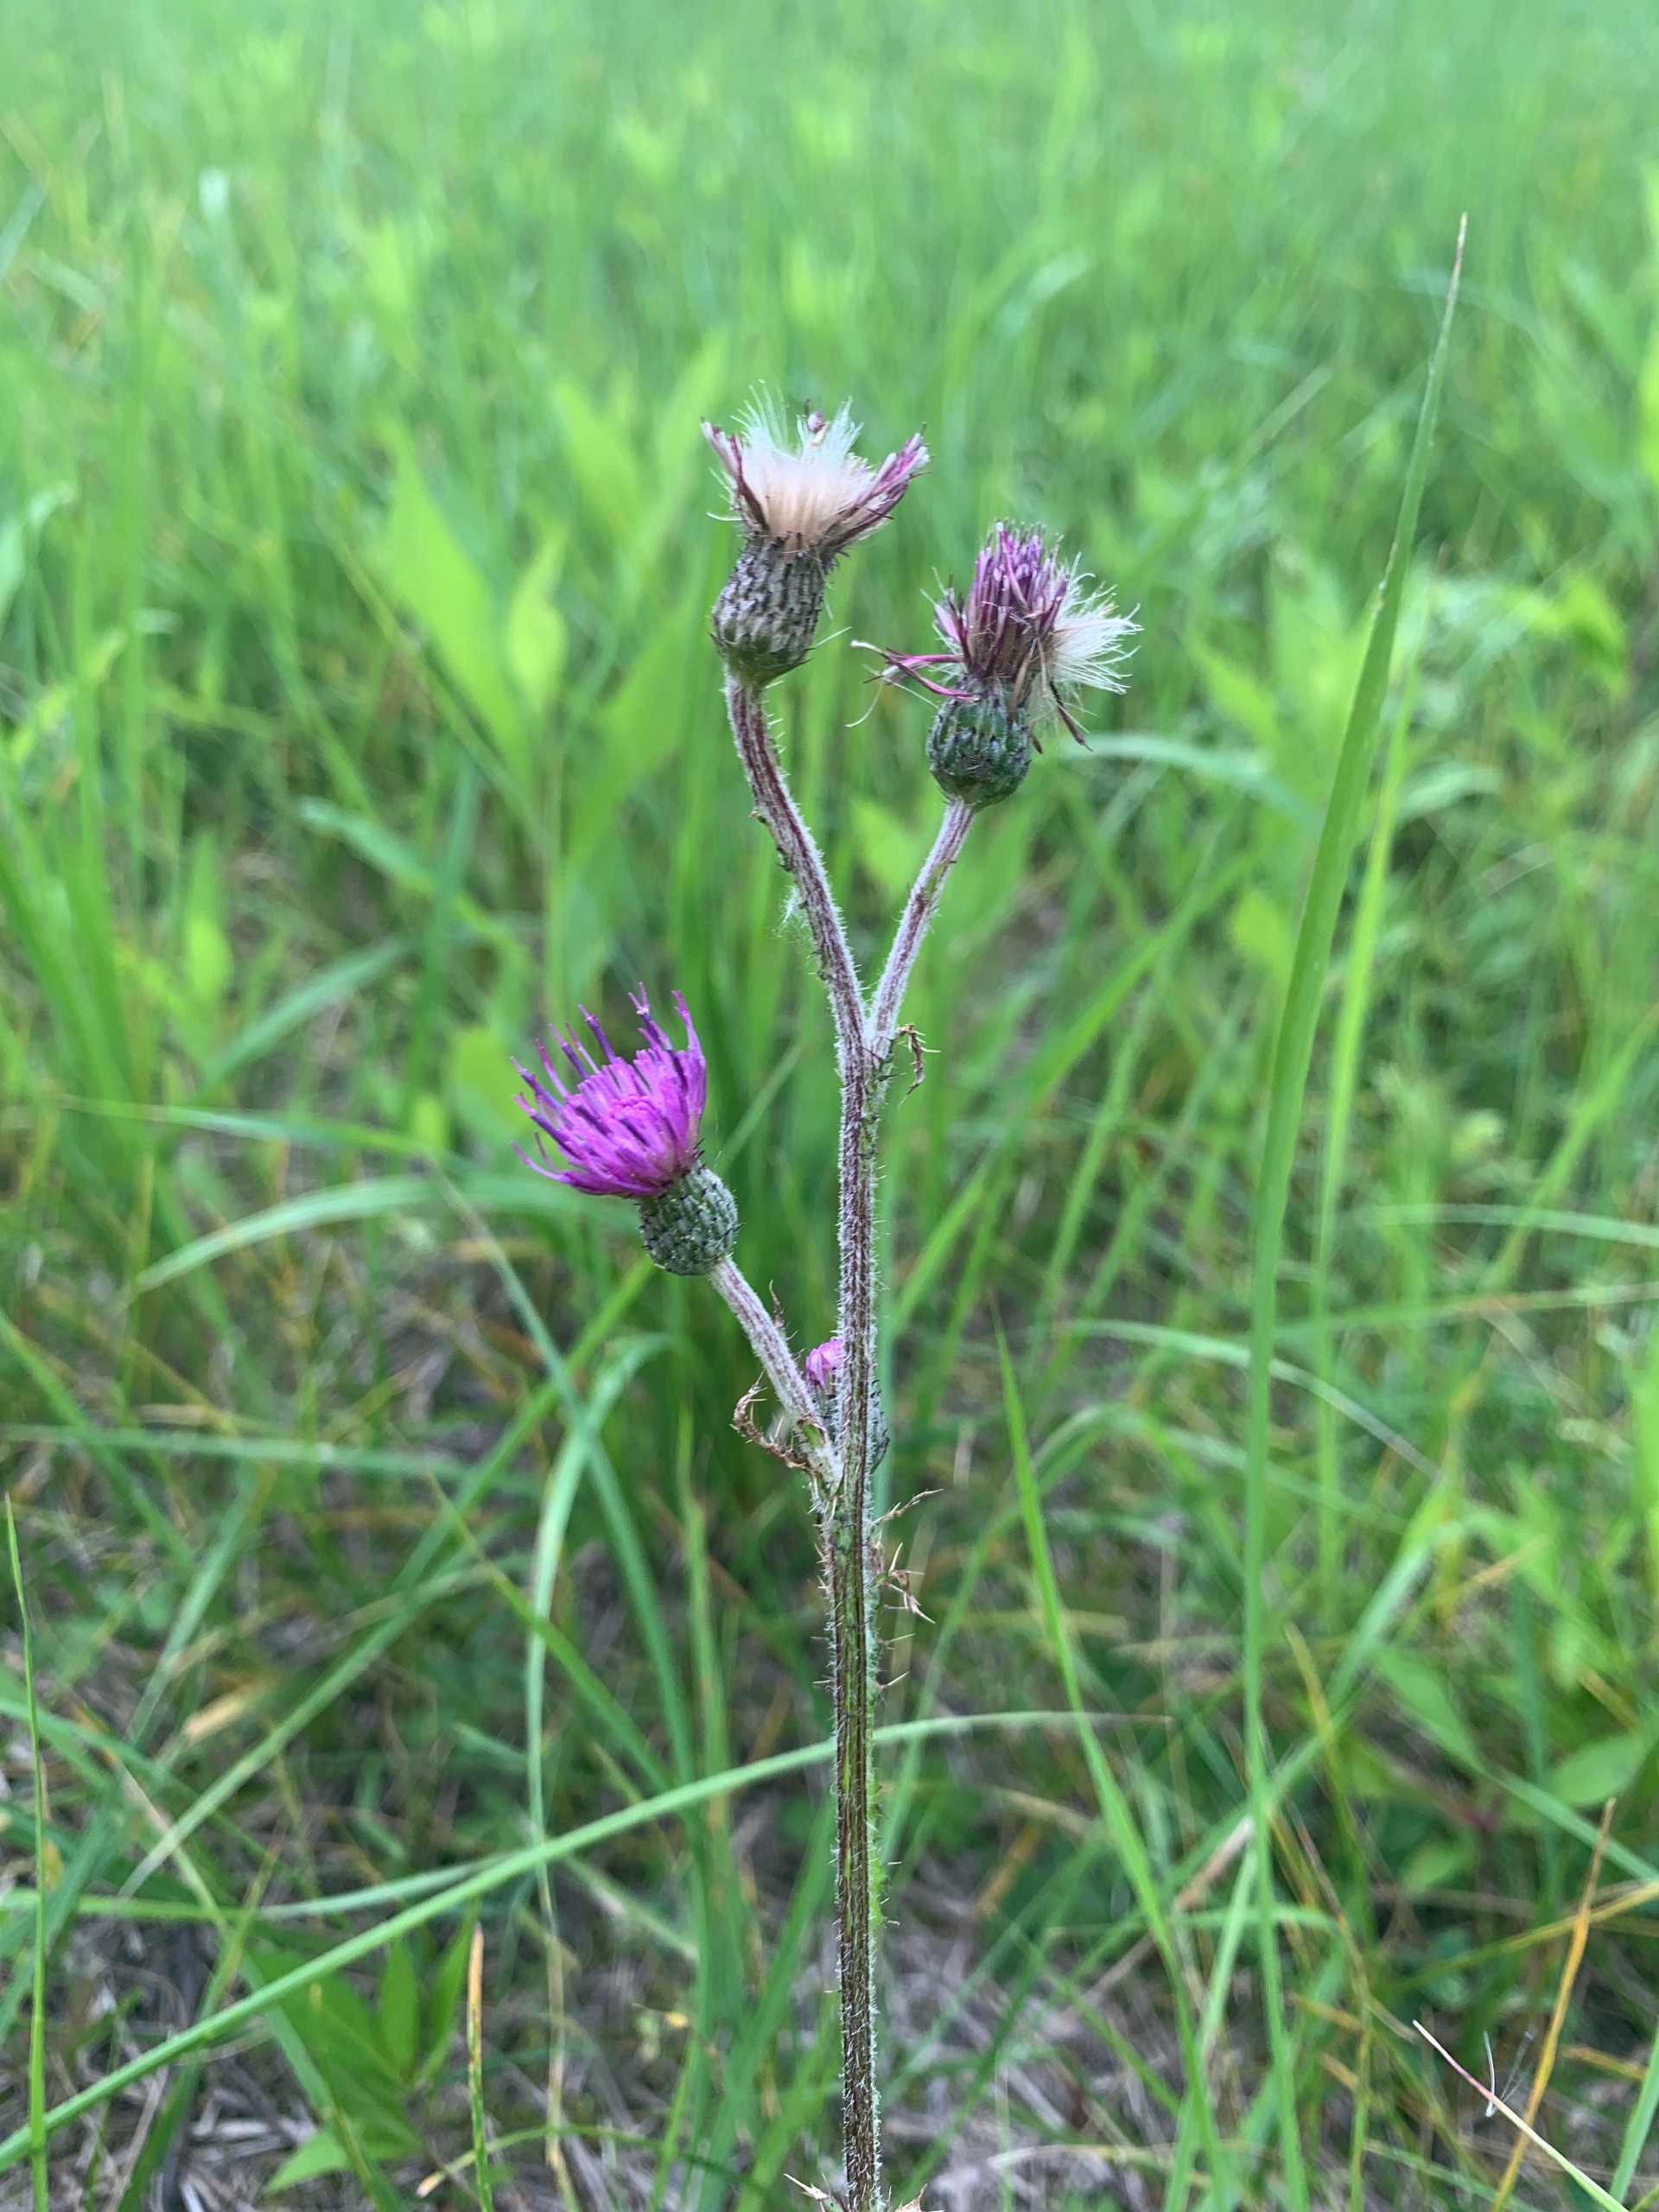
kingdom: Plantae
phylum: Tracheophyta
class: Magnoliopsida
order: Asterales
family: Asteraceae
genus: Cirsium
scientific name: Cirsium palustre
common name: Kær-tidsel
